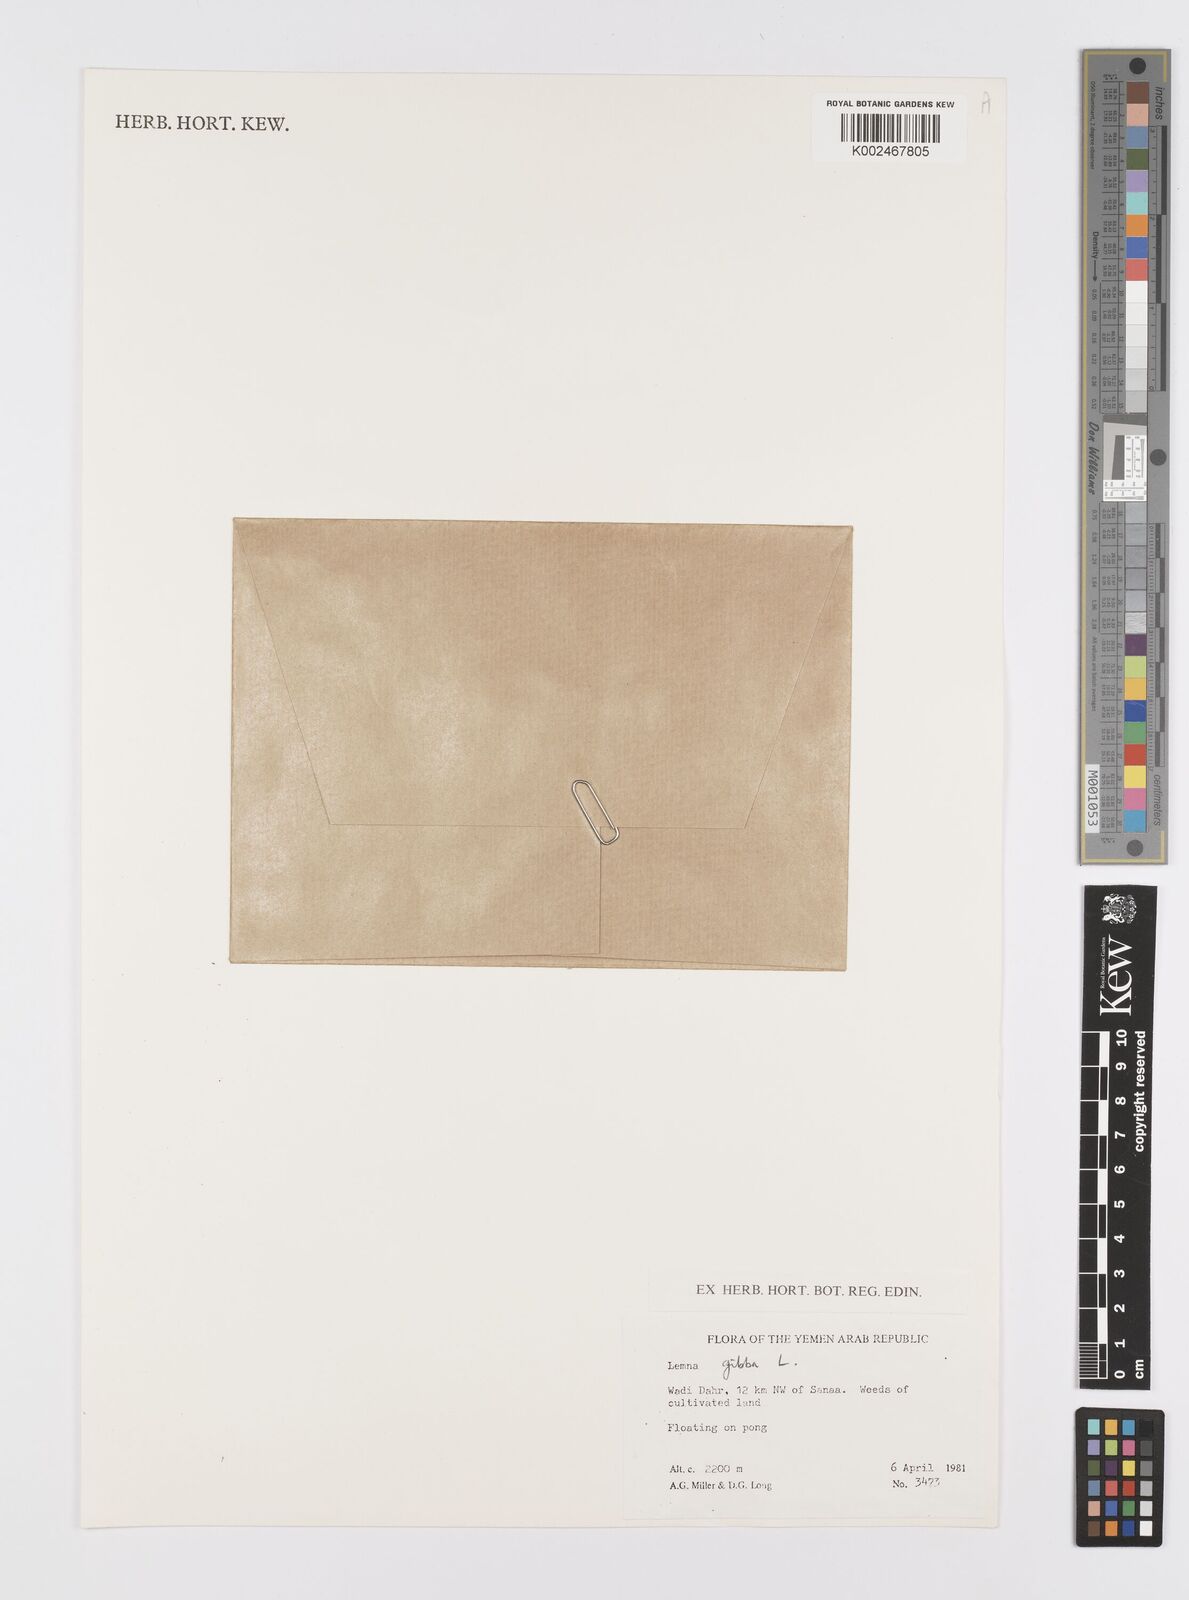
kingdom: Plantae
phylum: Tracheophyta
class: Liliopsida
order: Alismatales
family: Araceae
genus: Lemna
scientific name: Lemna gibba
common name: Fat duckweed
